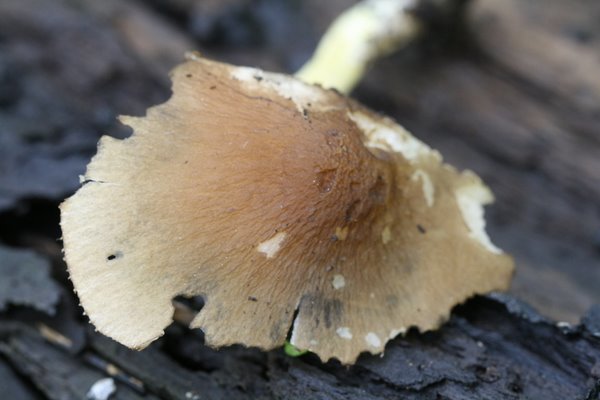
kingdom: Fungi
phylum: Basidiomycota
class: Agaricomycetes
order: Agaricales
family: Pluteaceae
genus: Pluteus
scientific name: Pluteus romellii
